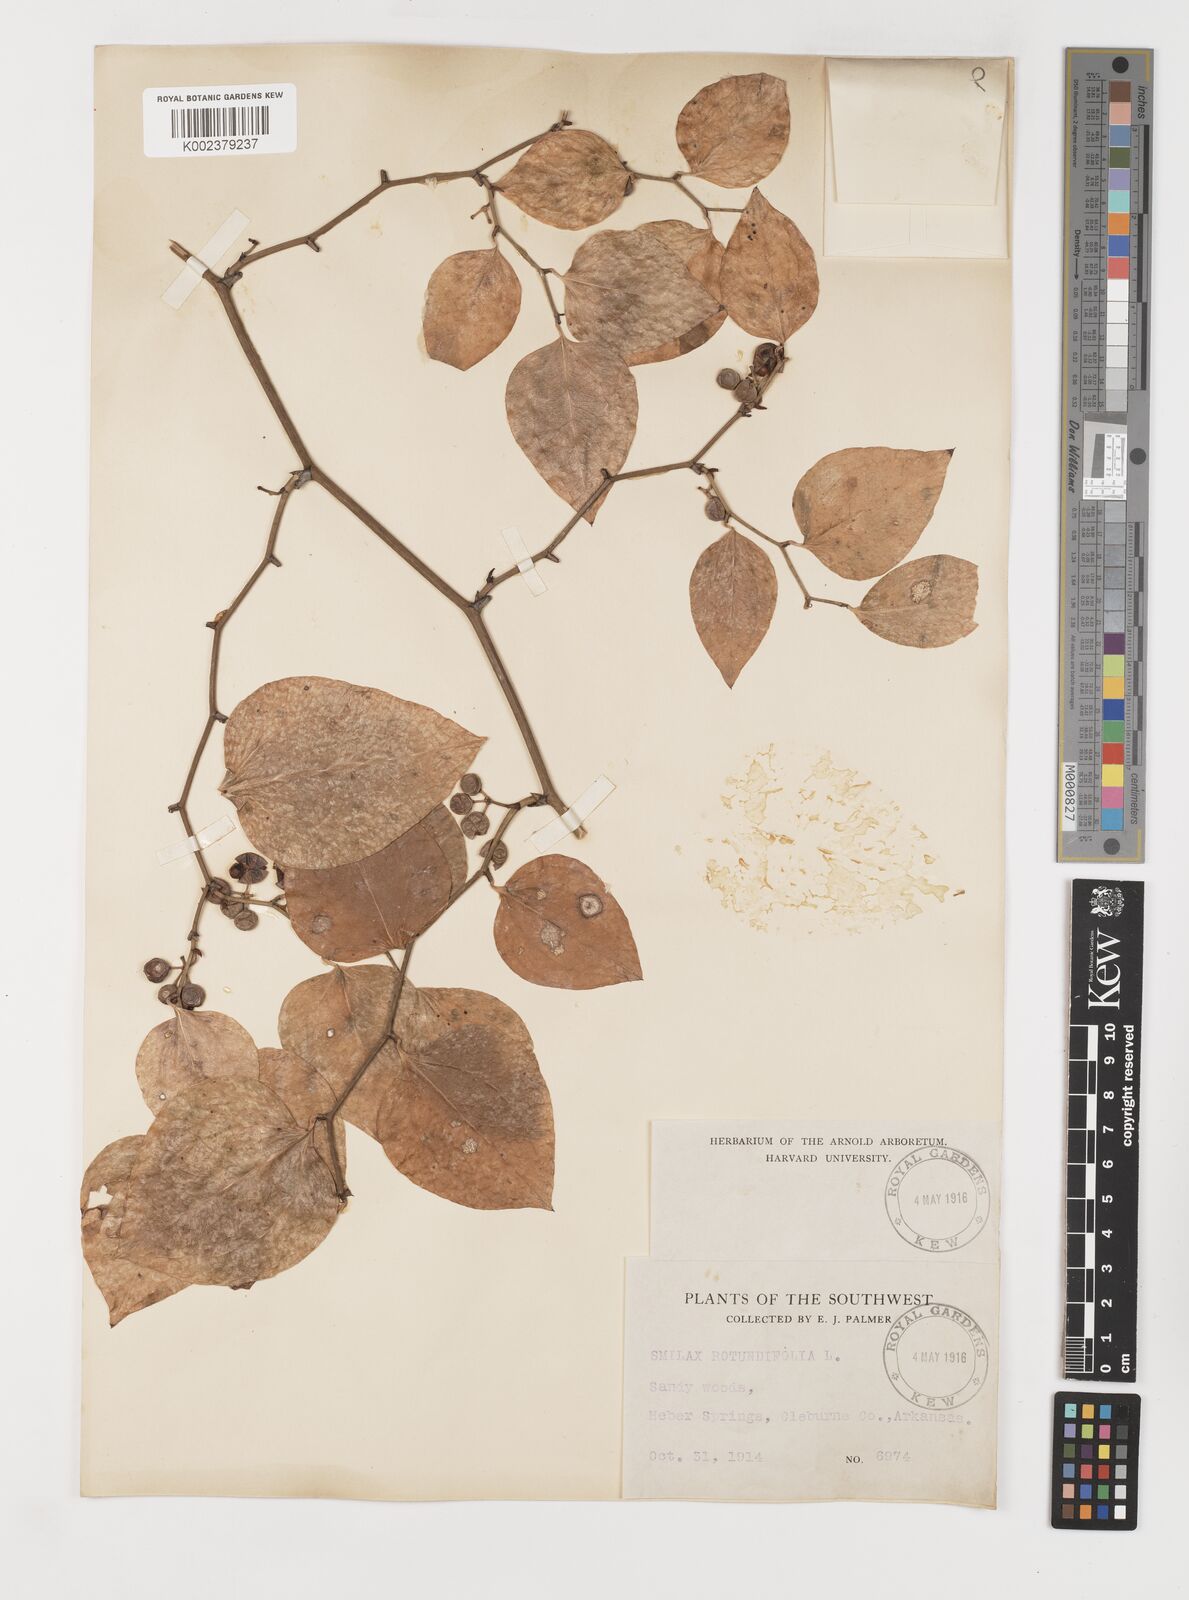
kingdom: Plantae
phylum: Tracheophyta
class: Liliopsida
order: Liliales
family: Smilacaceae
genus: Smilax
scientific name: Smilax rotundifolia
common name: Bullbriar
